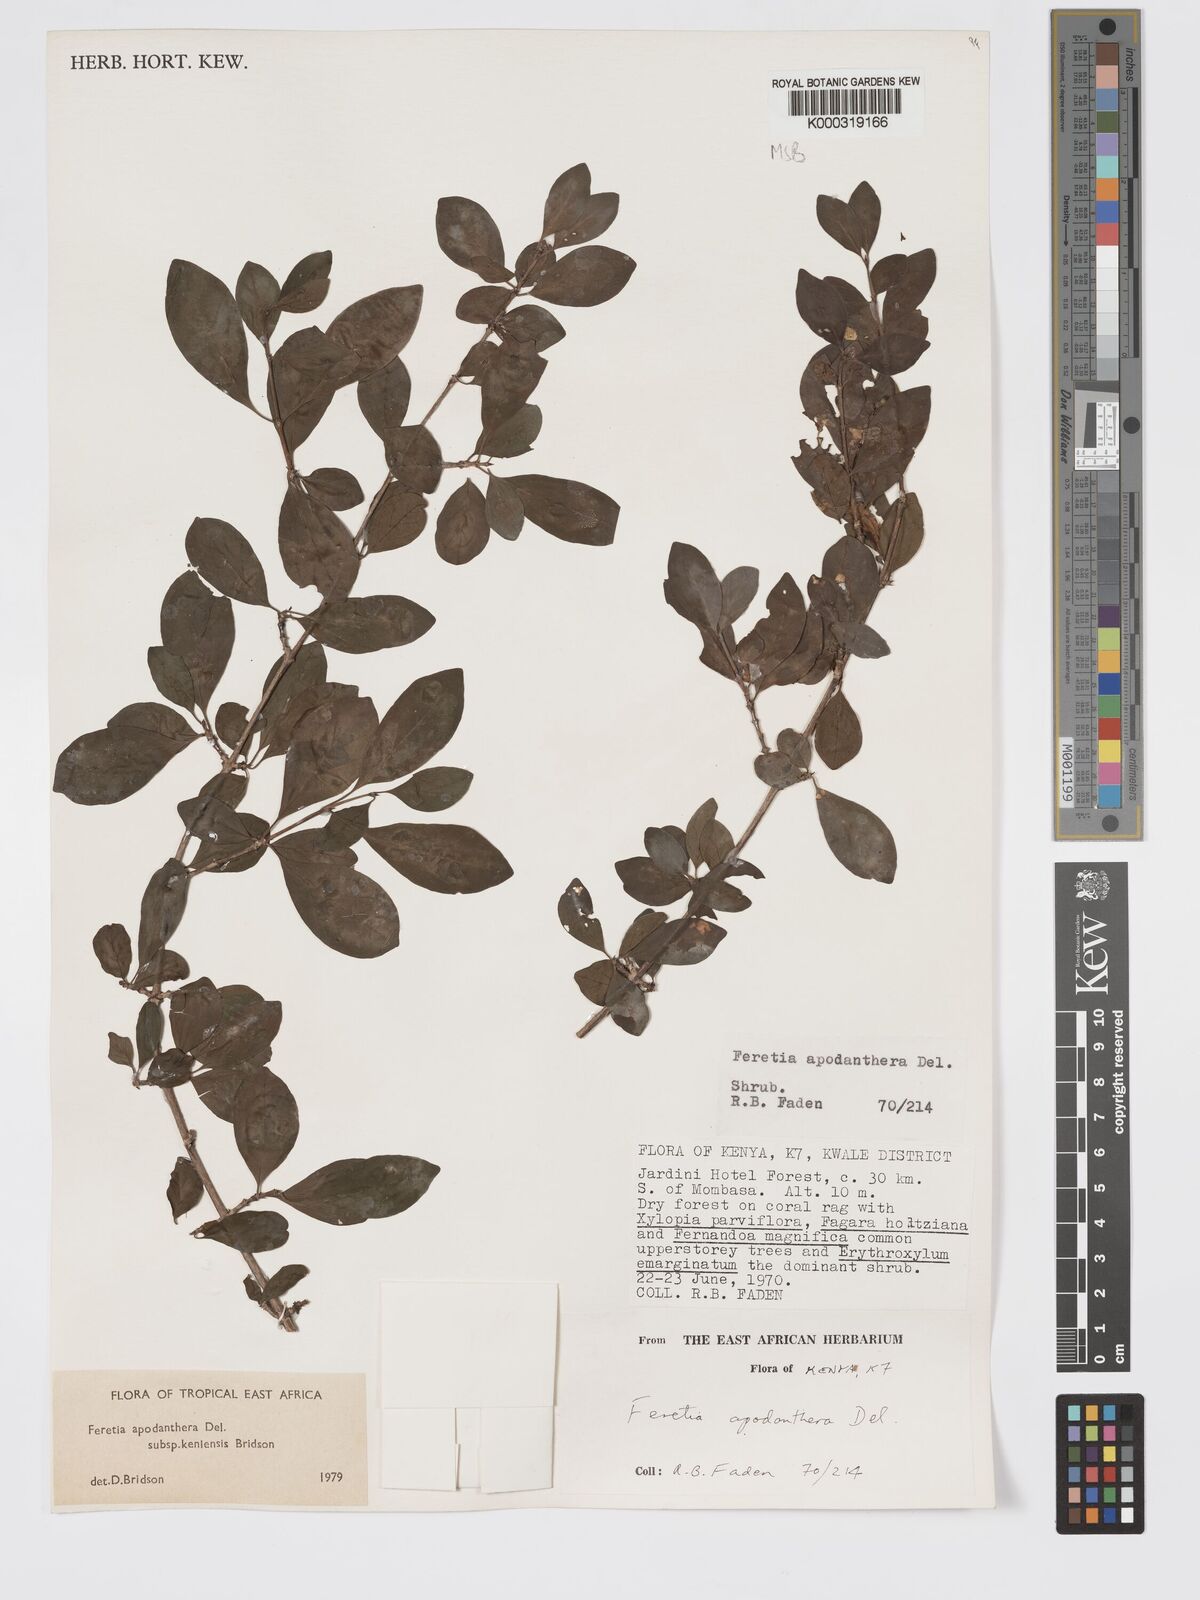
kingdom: Plantae
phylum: Tracheophyta
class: Magnoliopsida
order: Gentianales
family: Rubiaceae
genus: Feretia
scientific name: Feretia apodanthera
